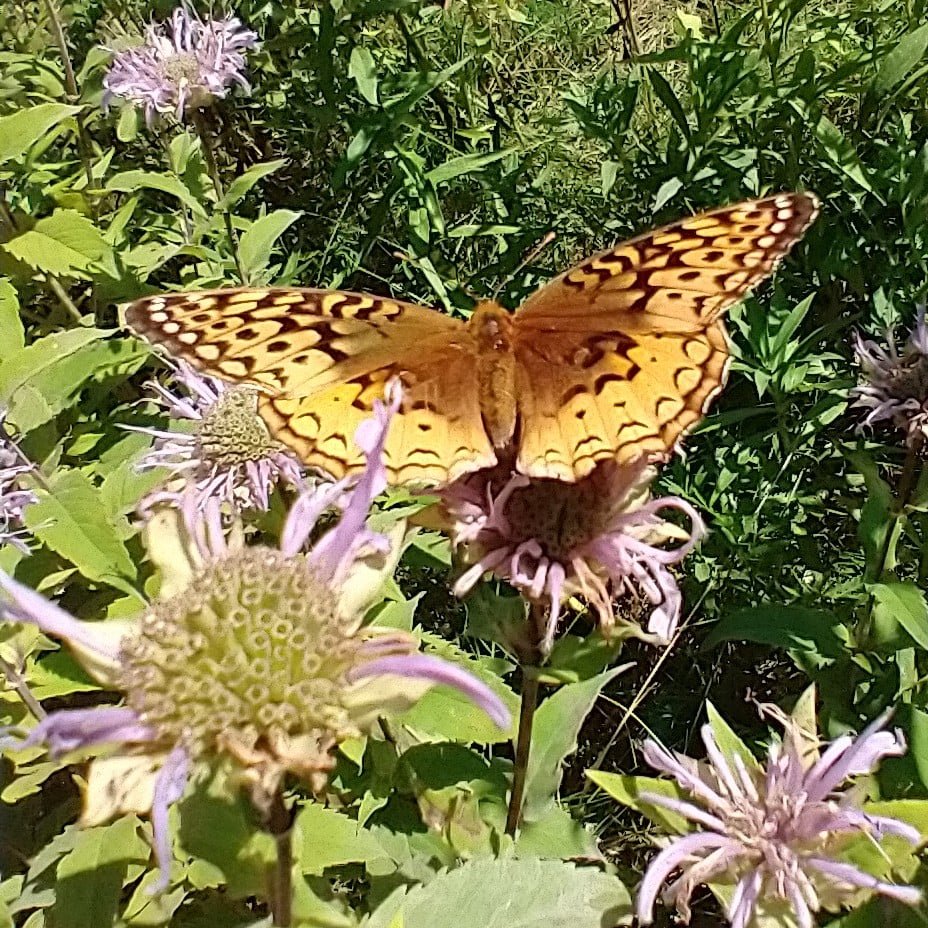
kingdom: Animalia
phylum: Arthropoda
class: Insecta
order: Lepidoptera
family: Nymphalidae
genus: Speyeria
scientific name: Speyeria cybele
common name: Great Spangled Fritillary
